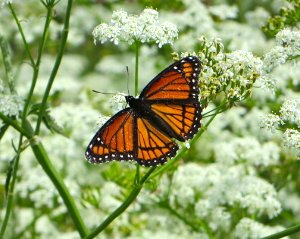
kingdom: Animalia
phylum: Arthropoda
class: Insecta
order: Lepidoptera
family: Nymphalidae
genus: Limenitis
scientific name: Limenitis archippus
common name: Viceroy
